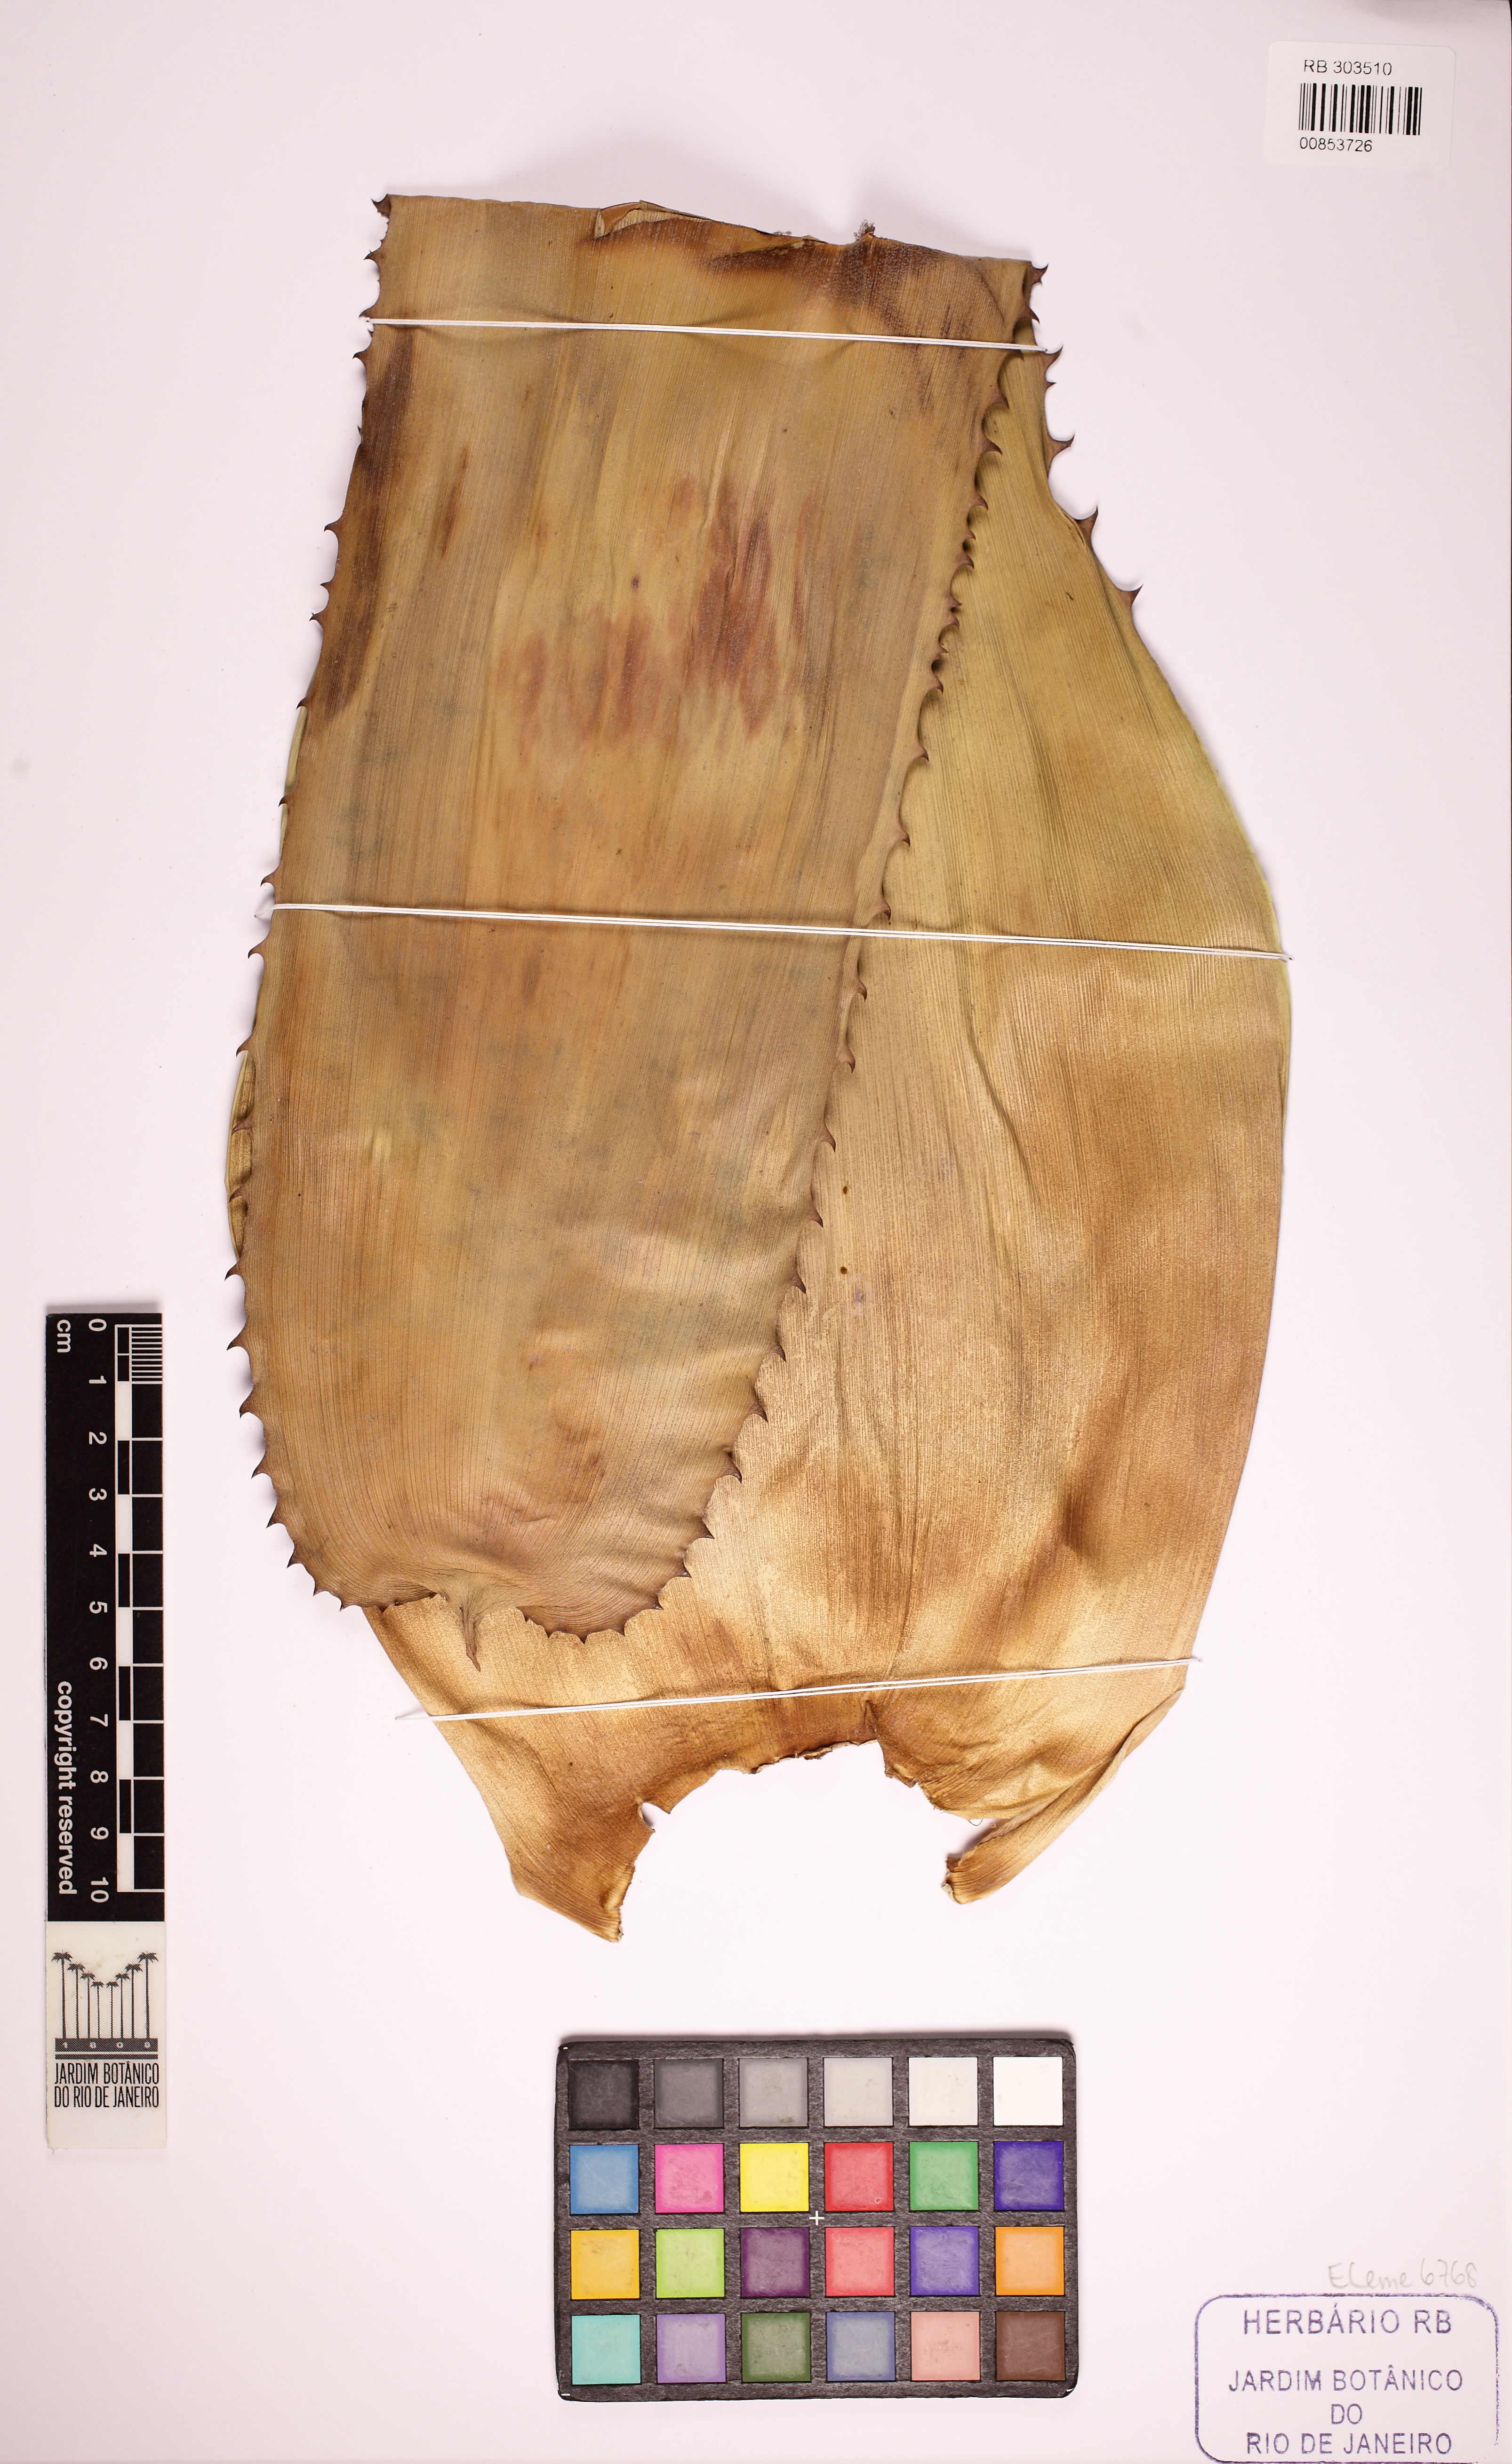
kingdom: Plantae
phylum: Tracheophyta
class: Liliopsida
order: Poales
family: Bromeliaceae
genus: Neoregelia
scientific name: Neoregelia gigas
